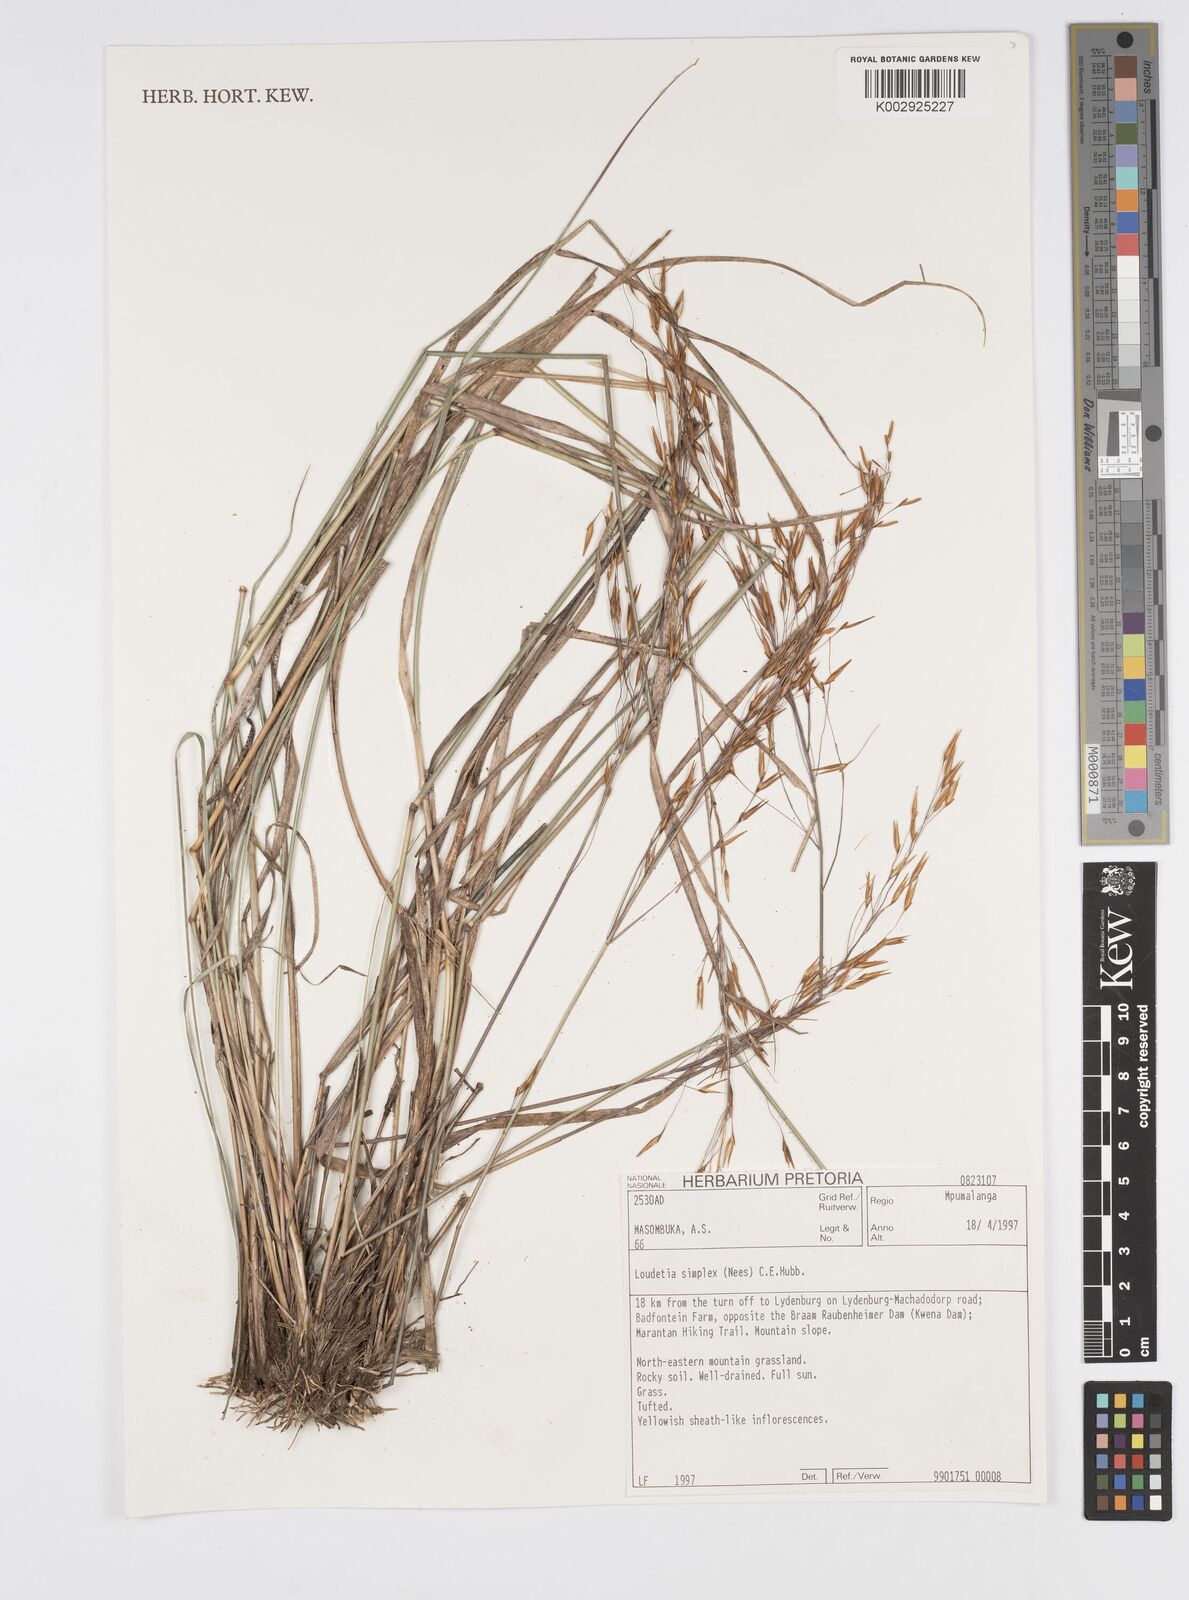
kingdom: Plantae
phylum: Tracheophyta
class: Liliopsida
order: Poales
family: Poaceae
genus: Loudetia
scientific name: Loudetia simplex
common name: Common russet grass
